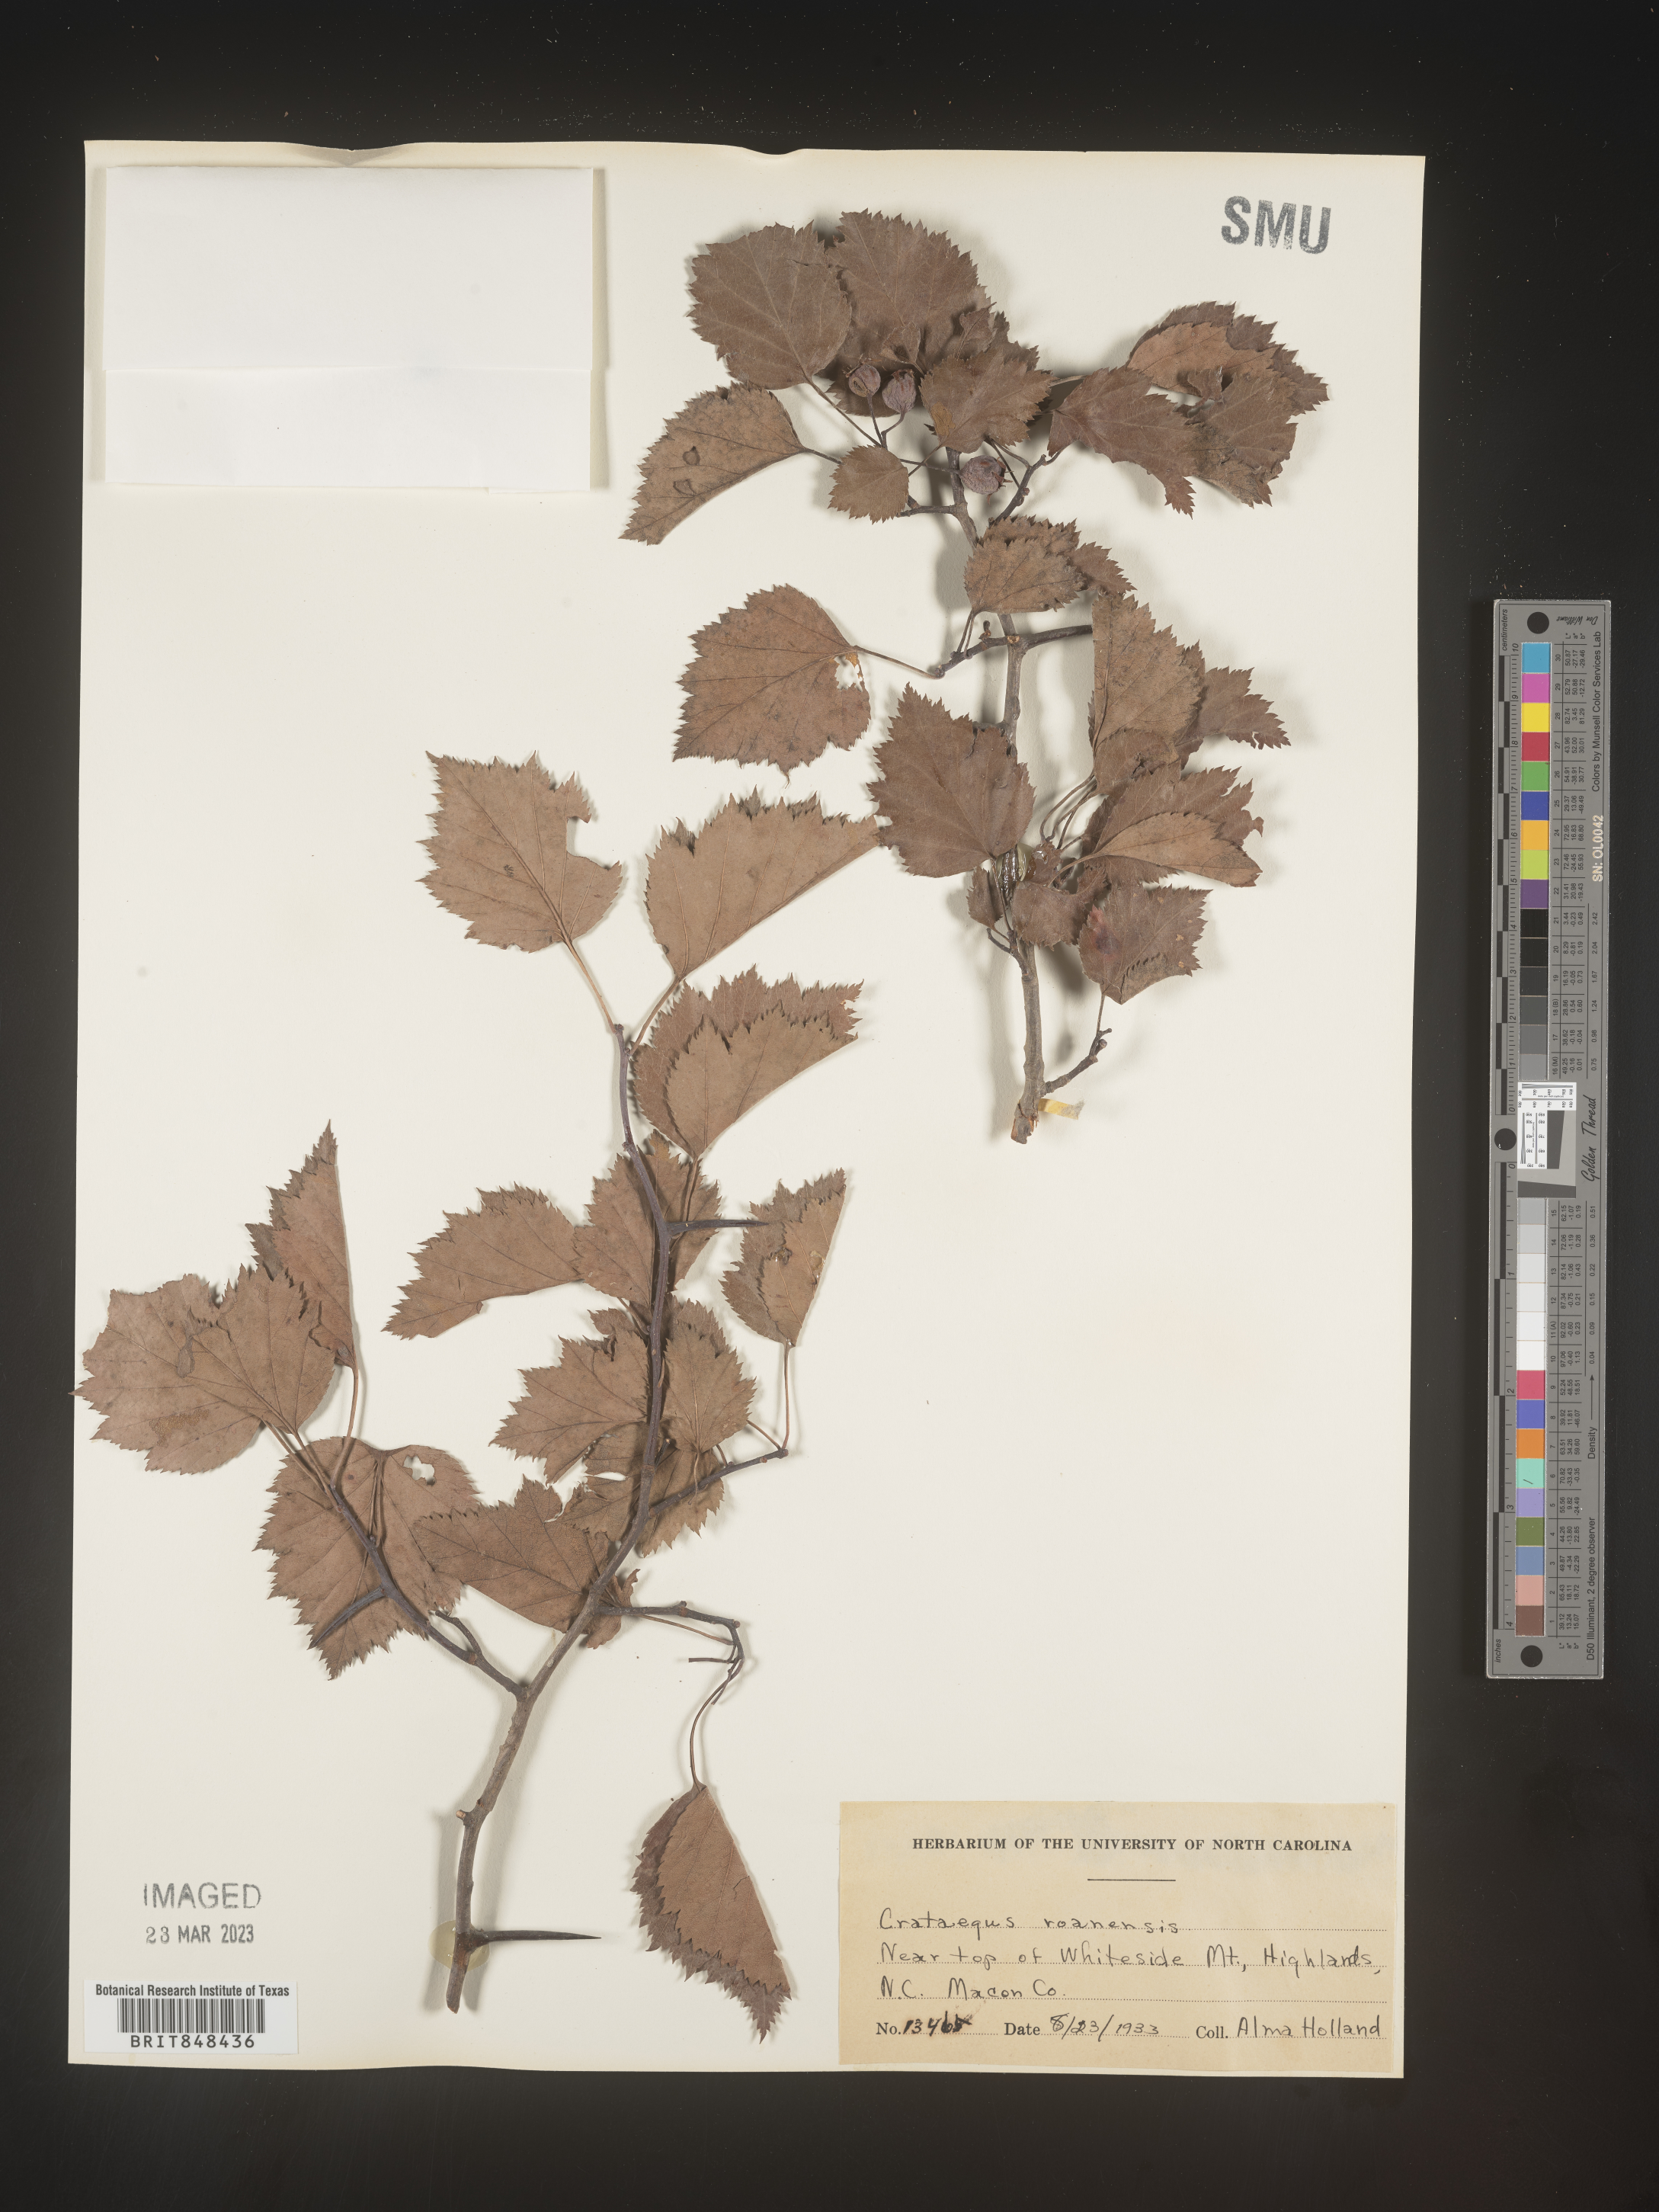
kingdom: Plantae
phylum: Tracheophyta
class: Magnoliopsida
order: Rosales
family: Rosaceae
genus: Crataegus
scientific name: Crataegus macrosperma
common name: Variable hawthorn
